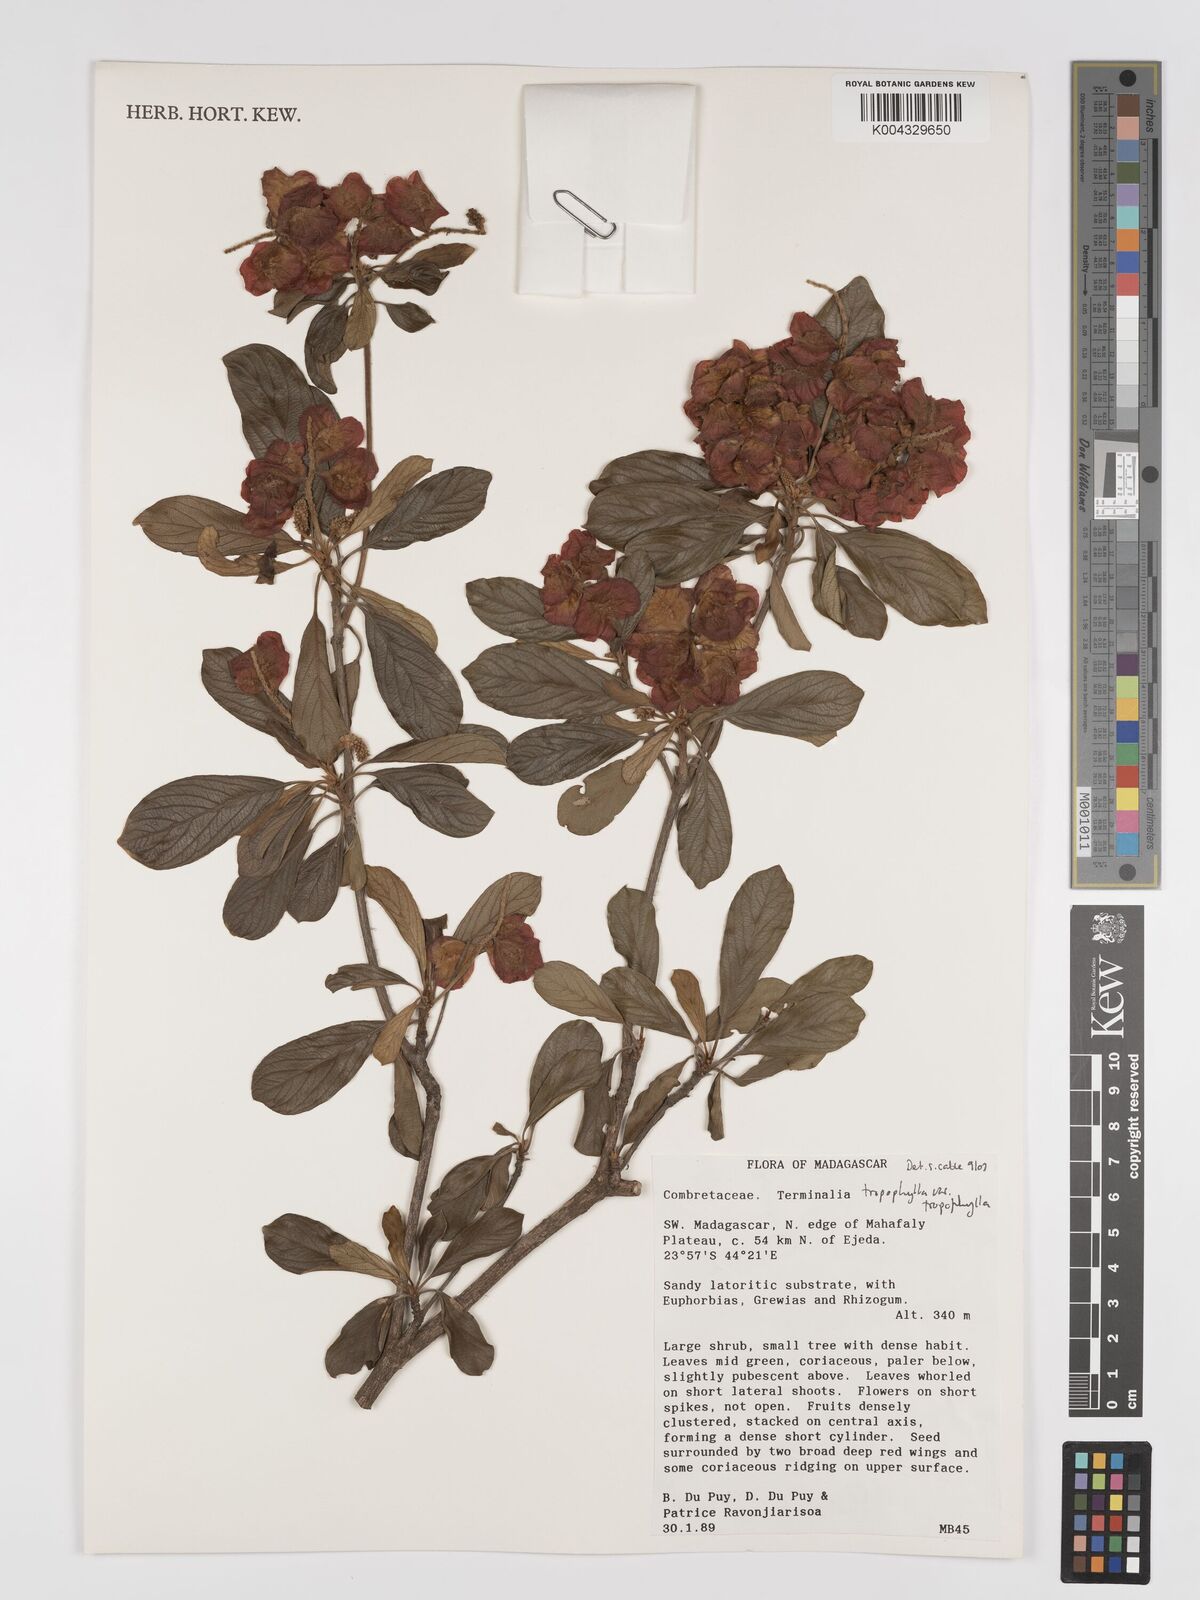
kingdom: Plantae
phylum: Tracheophyta
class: Magnoliopsida
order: Myrtales
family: Combretaceae
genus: Terminalia
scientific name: Terminalia tropophylla
